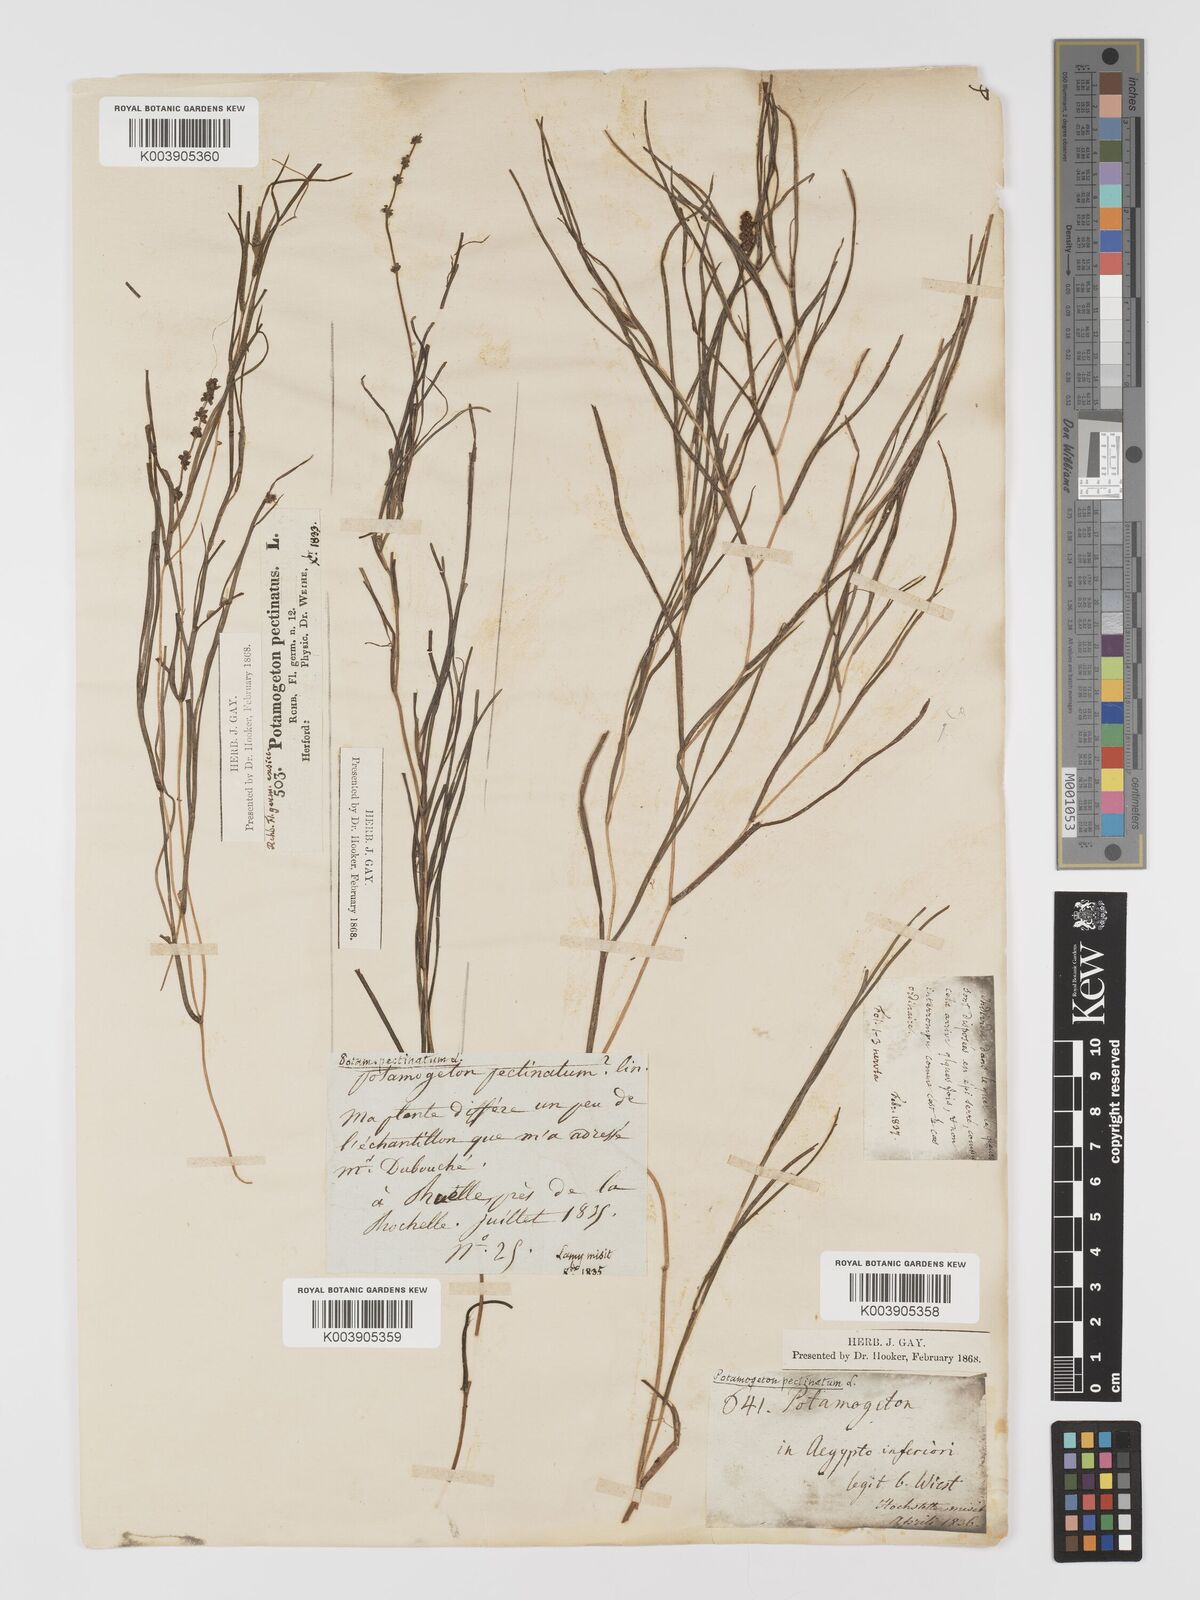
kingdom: Plantae
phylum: Tracheophyta
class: Liliopsida
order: Alismatales
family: Potamogetonaceae
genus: Stuckenia
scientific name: Stuckenia pectinata
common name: Sago pondweed
